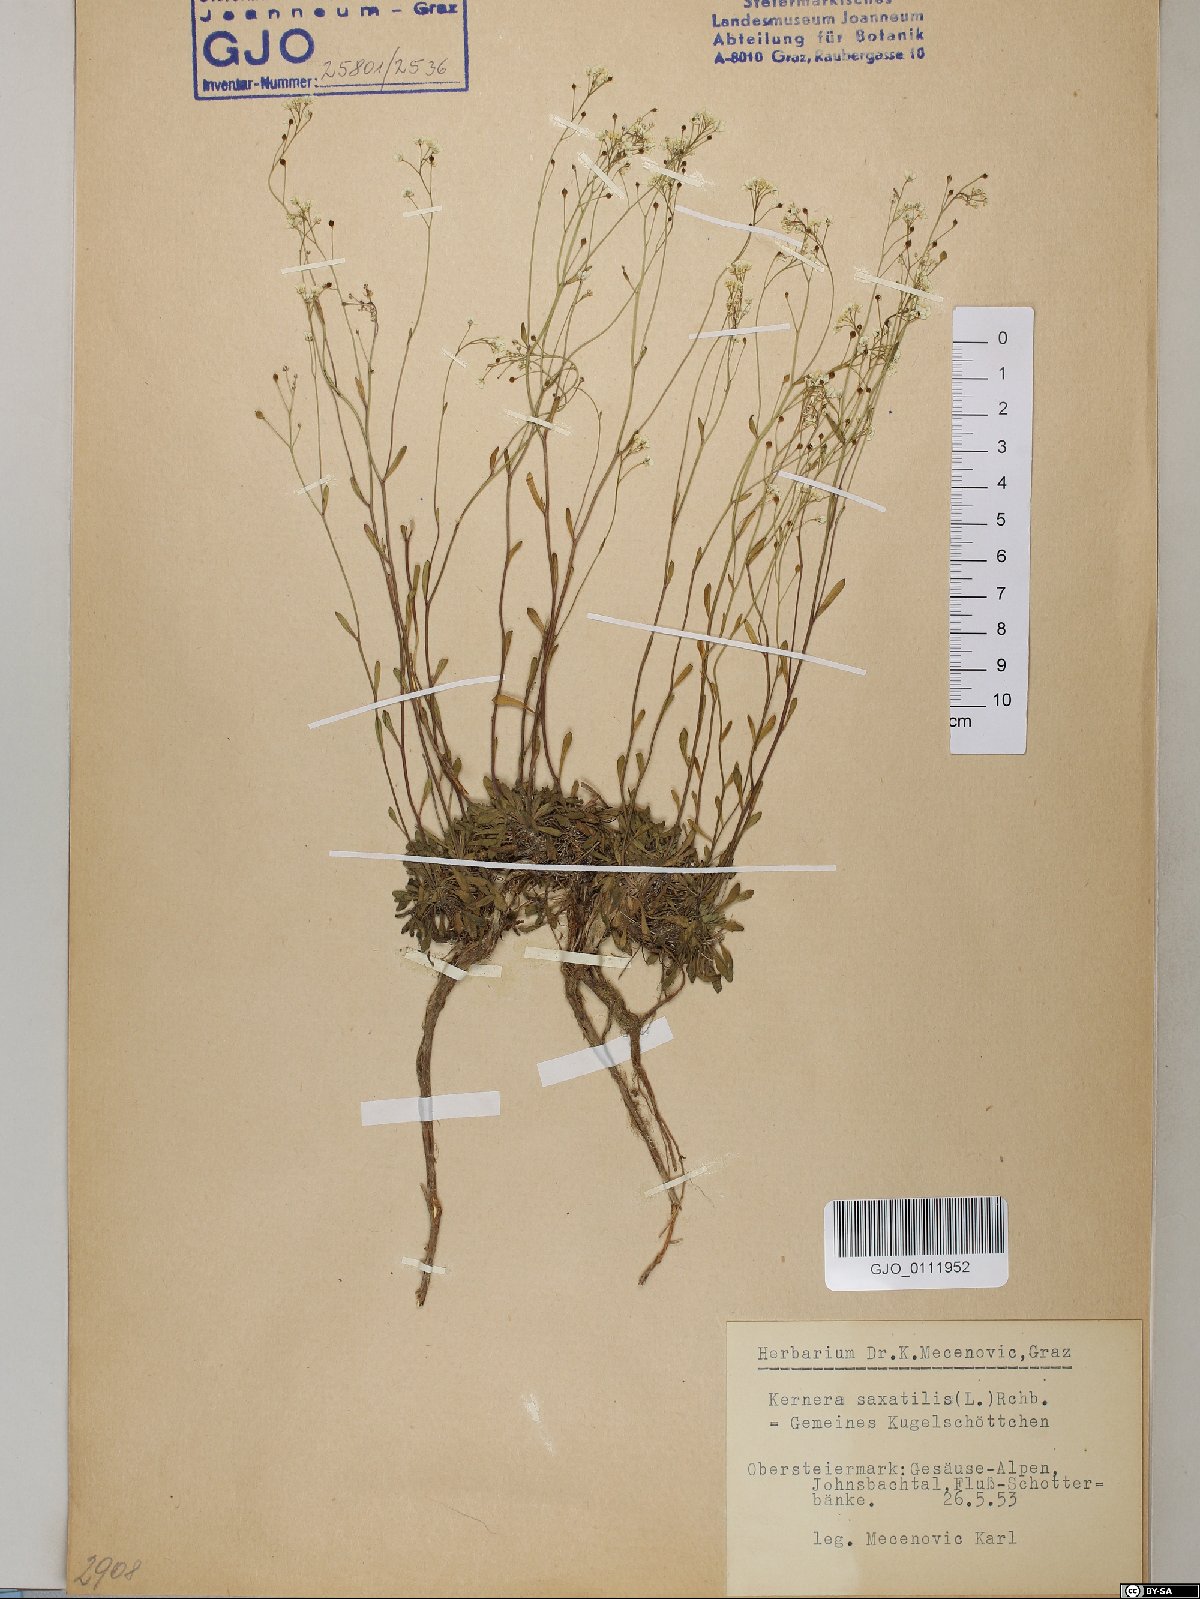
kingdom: Plantae
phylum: Tracheophyta
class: Magnoliopsida
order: Brassicales
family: Brassicaceae
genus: Kernera
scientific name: Kernera saxatilis
